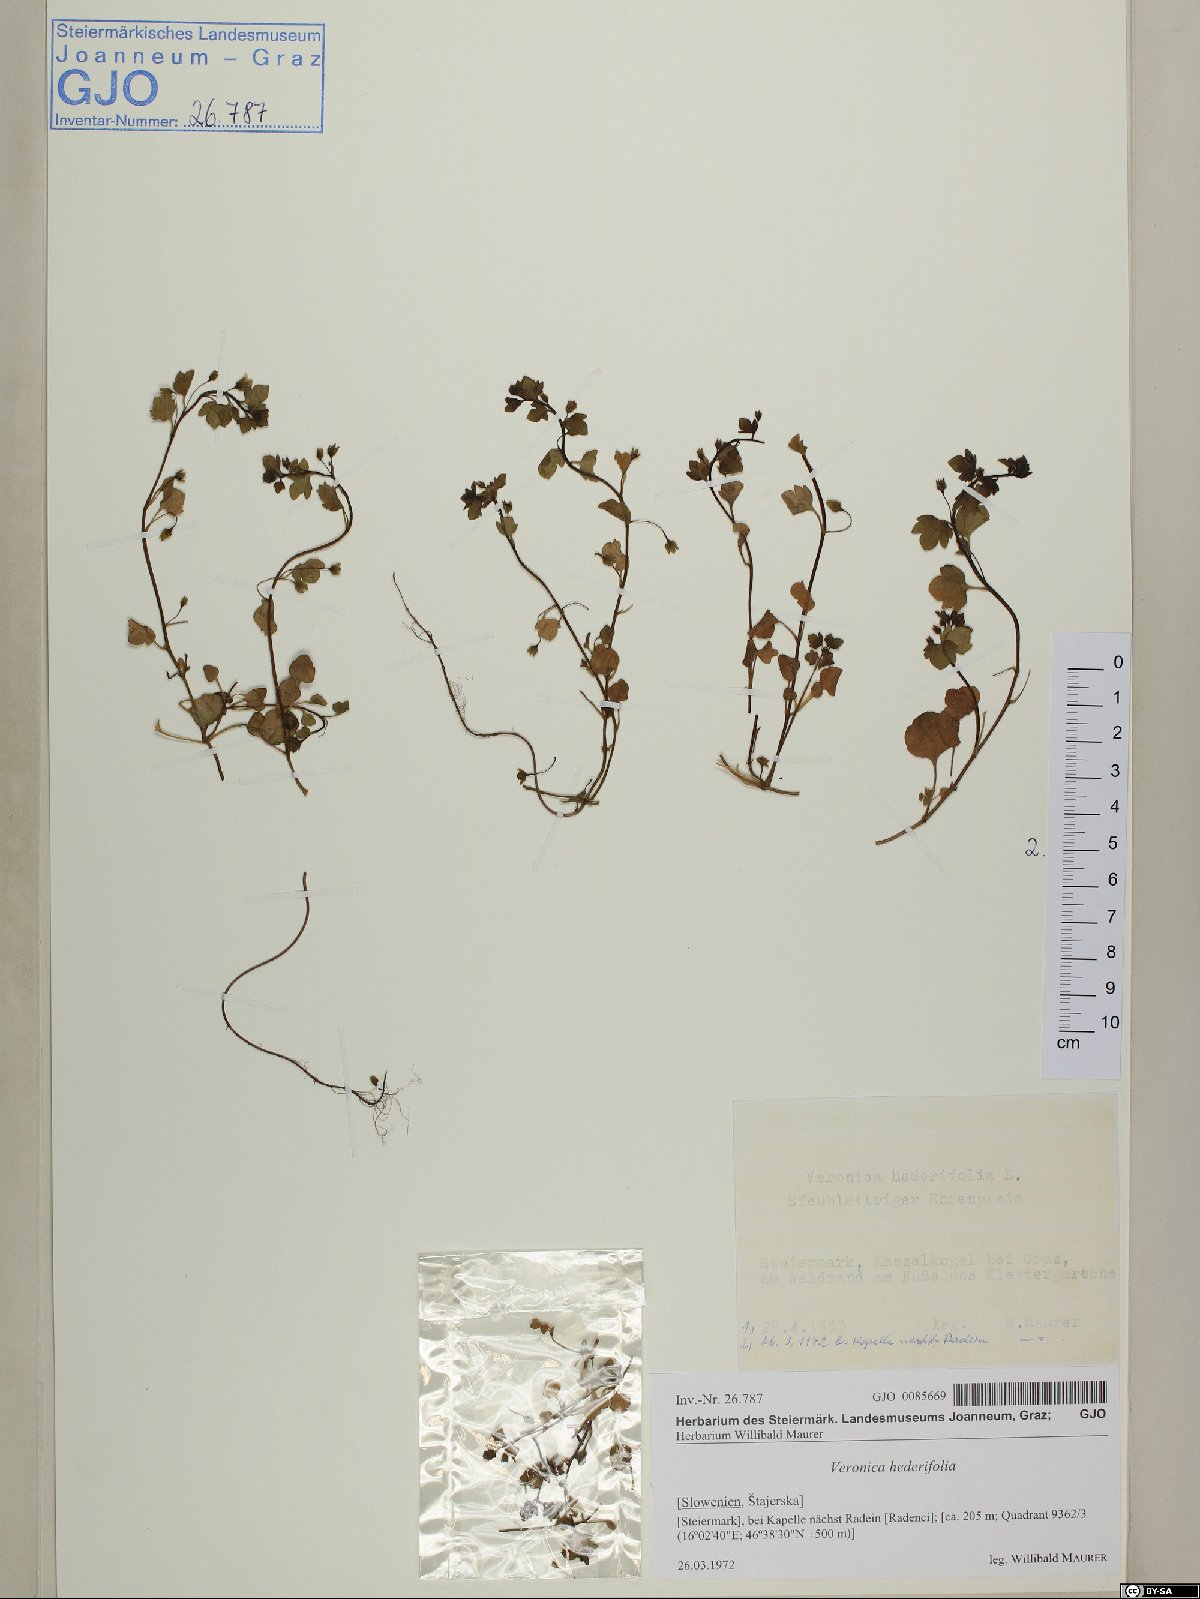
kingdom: Plantae
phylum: Tracheophyta
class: Magnoliopsida
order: Lamiales
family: Plantaginaceae
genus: Veronica
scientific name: Veronica hederifolia
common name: Ivy-leaved speedwell
